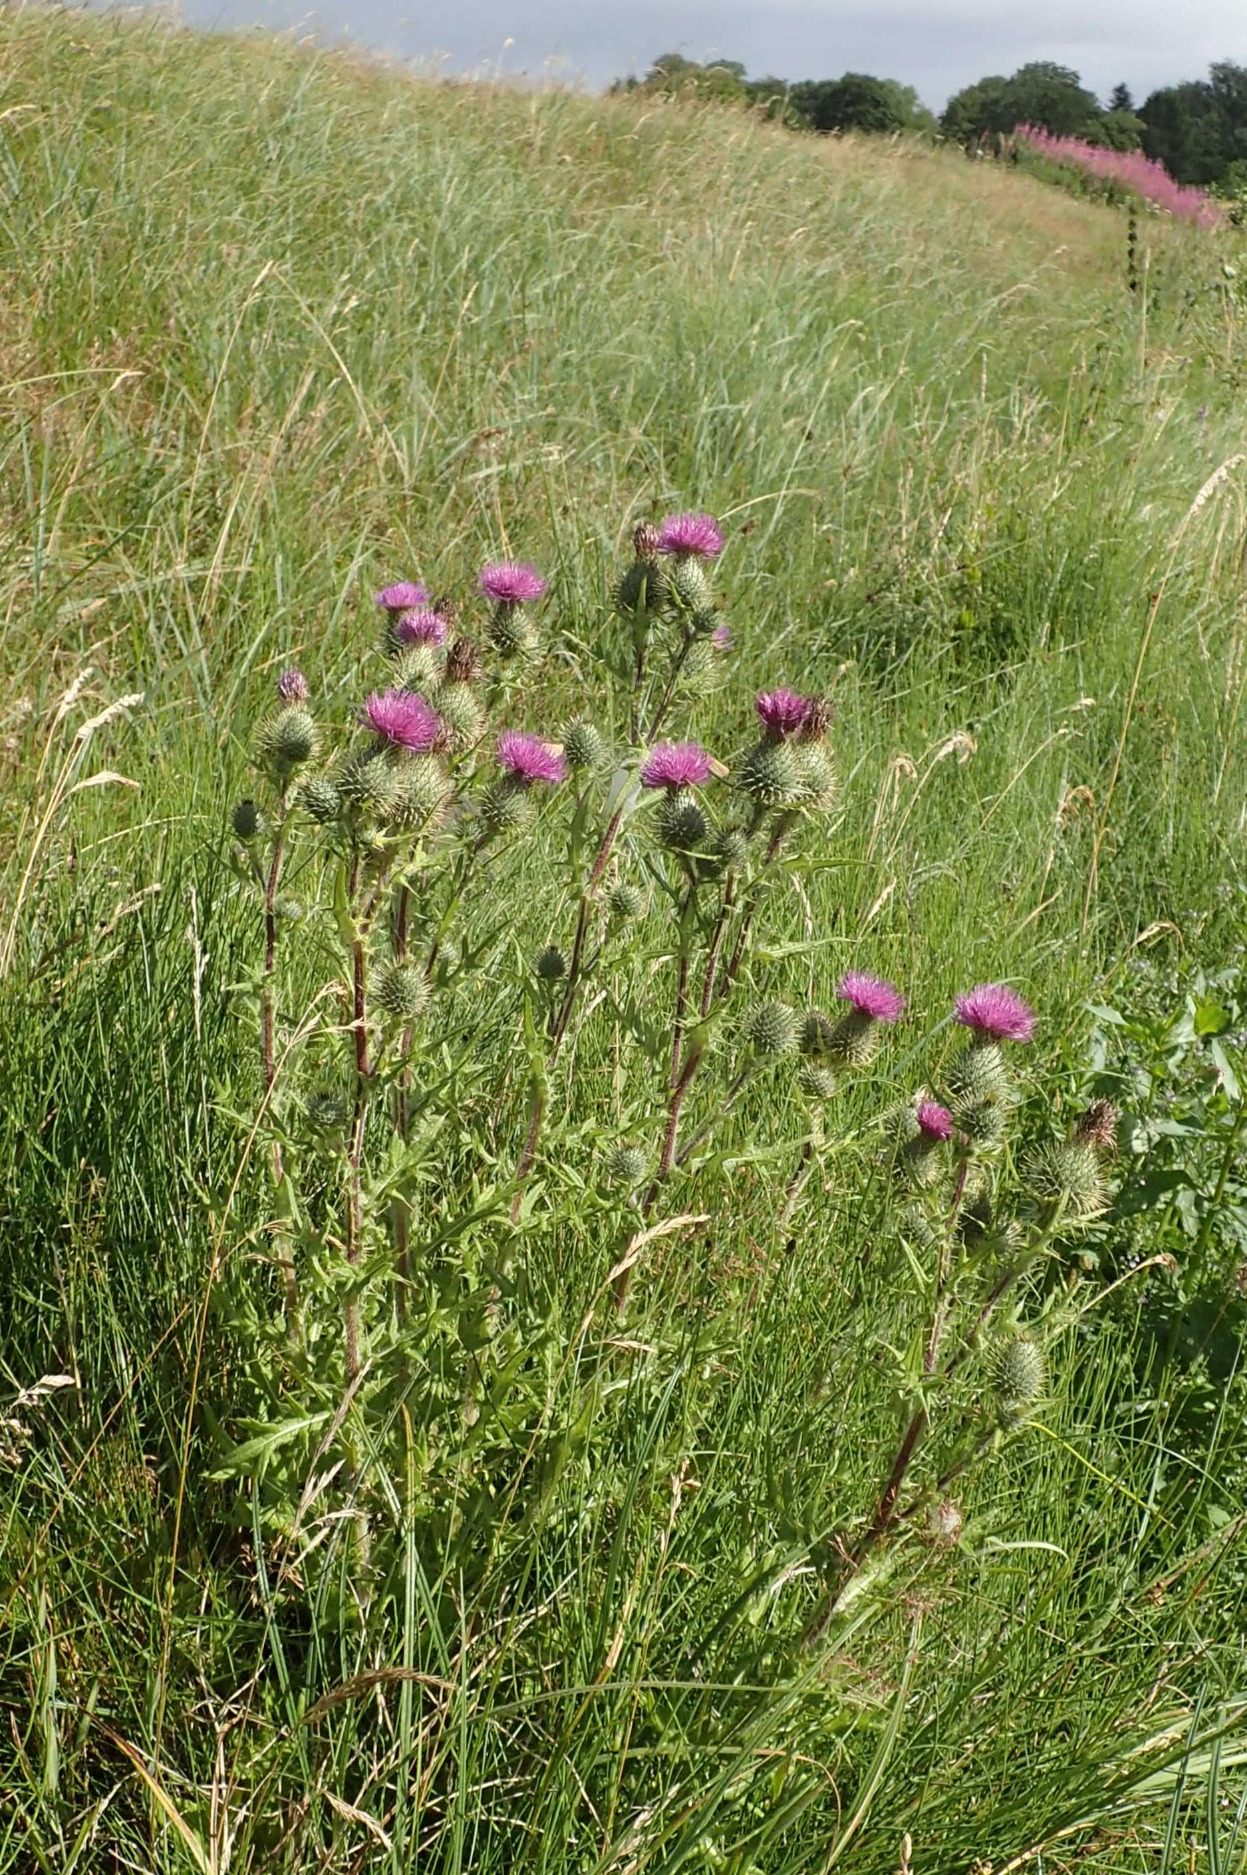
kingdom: Plantae
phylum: Tracheophyta
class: Magnoliopsida
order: Asterales
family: Asteraceae
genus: Cirsium
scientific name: Cirsium vulgare
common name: Horse-tidsel
